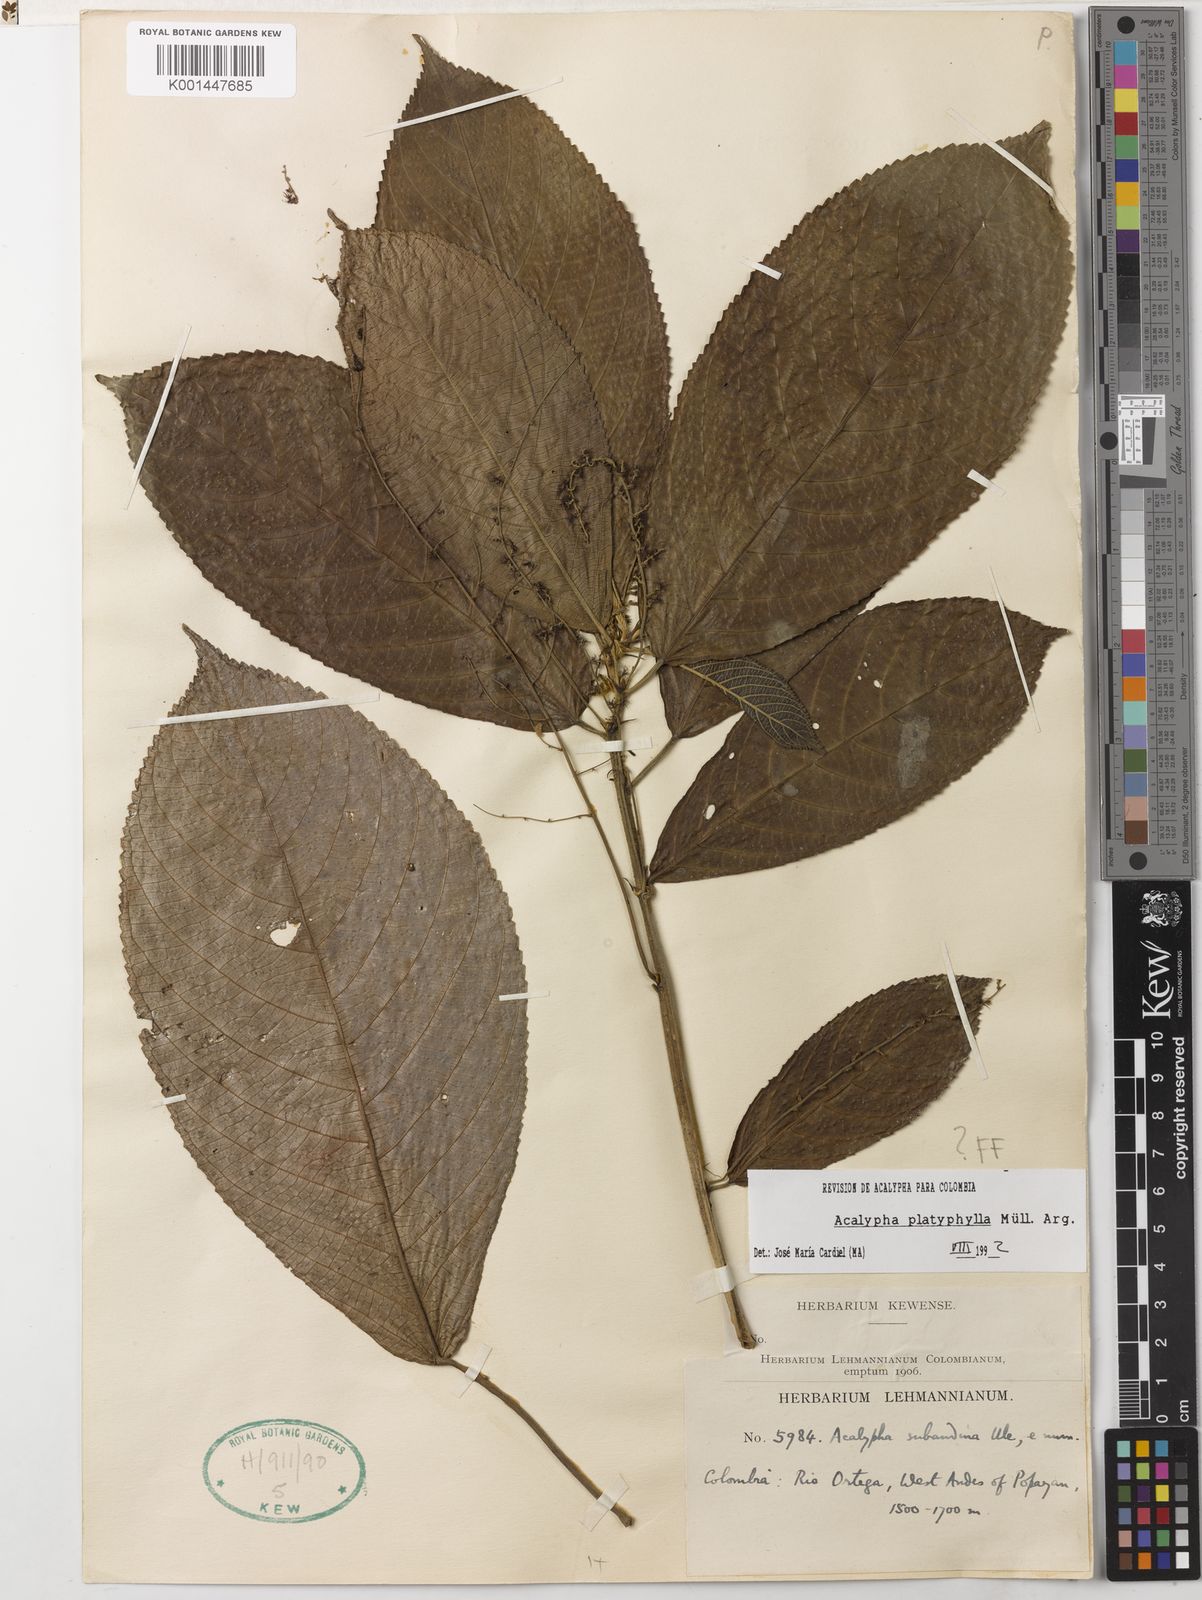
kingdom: Plantae
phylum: Tracheophyta
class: Magnoliopsida
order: Malpighiales
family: Euphorbiaceae
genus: Acalypha
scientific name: Acalypha platyphylla
